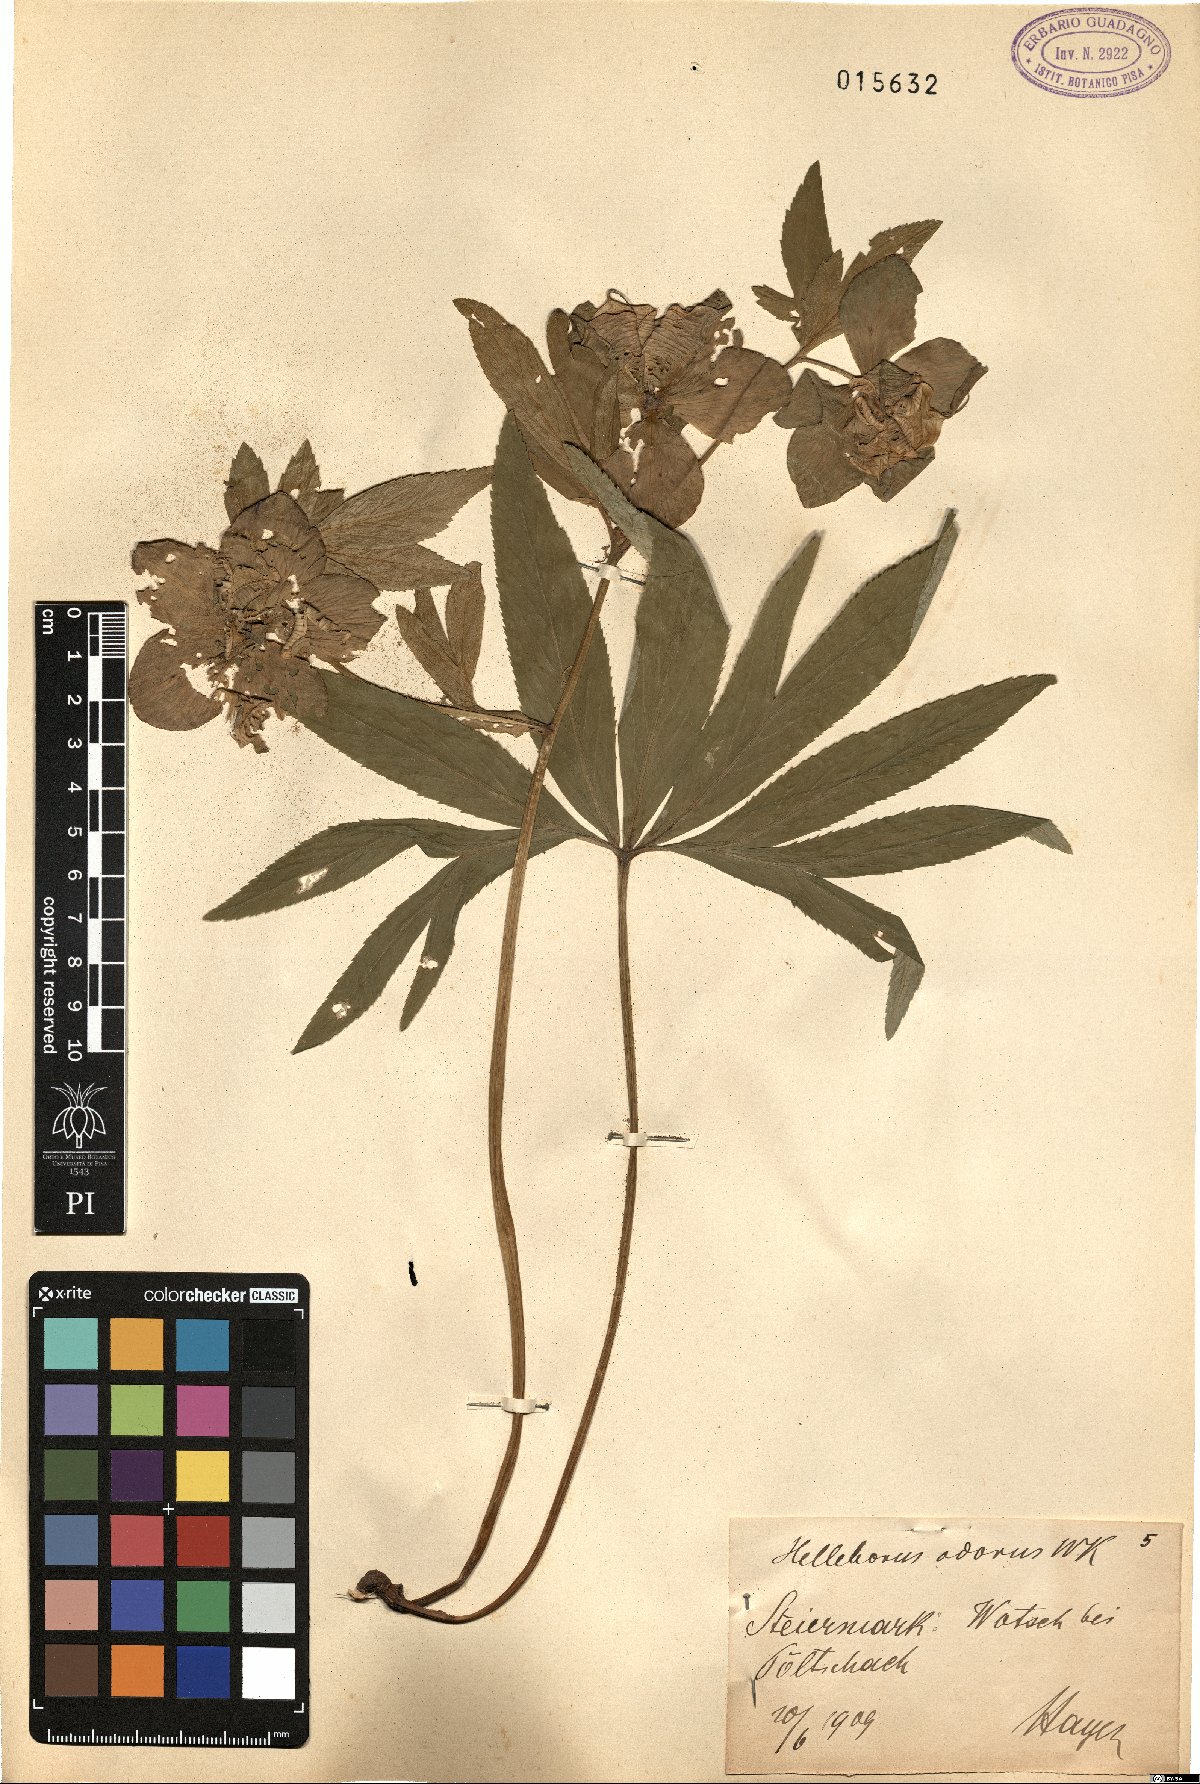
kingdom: Plantae
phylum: Tracheophyta
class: Magnoliopsida
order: Ranunculales
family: Ranunculaceae
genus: Helleborus
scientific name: Helleborus odorus
